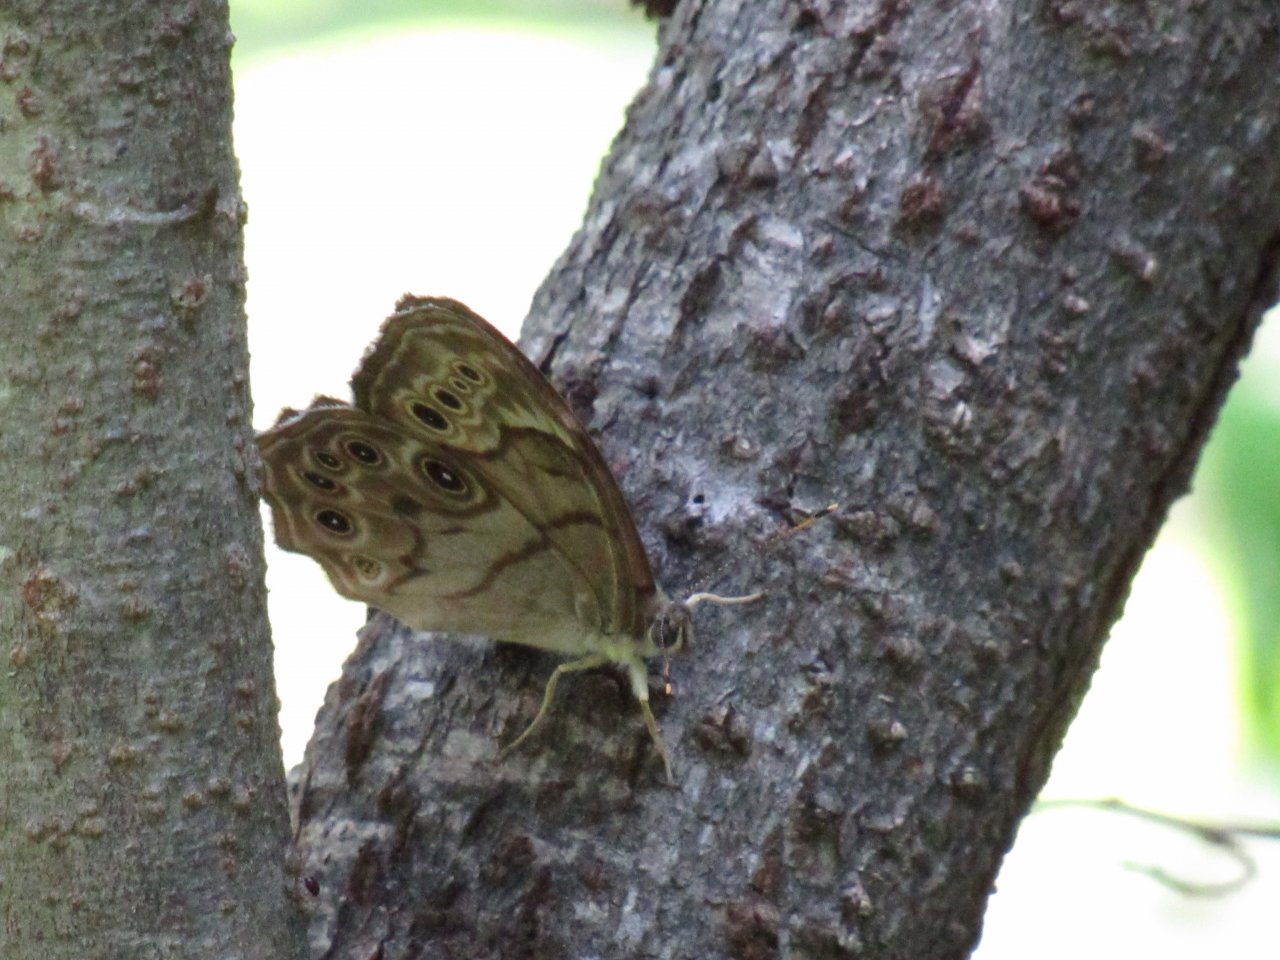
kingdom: Animalia
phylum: Arthropoda
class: Insecta
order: Lepidoptera
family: Nymphalidae
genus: Lethe
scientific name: Lethe anthedon
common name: Northern Pearly-Eye
